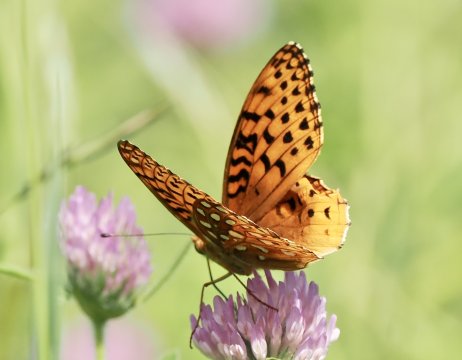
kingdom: Animalia
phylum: Arthropoda
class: Insecta
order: Lepidoptera
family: Nymphalidae
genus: Speyeria
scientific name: Speyeria aphrodite
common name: Aphrodite Fritillary
